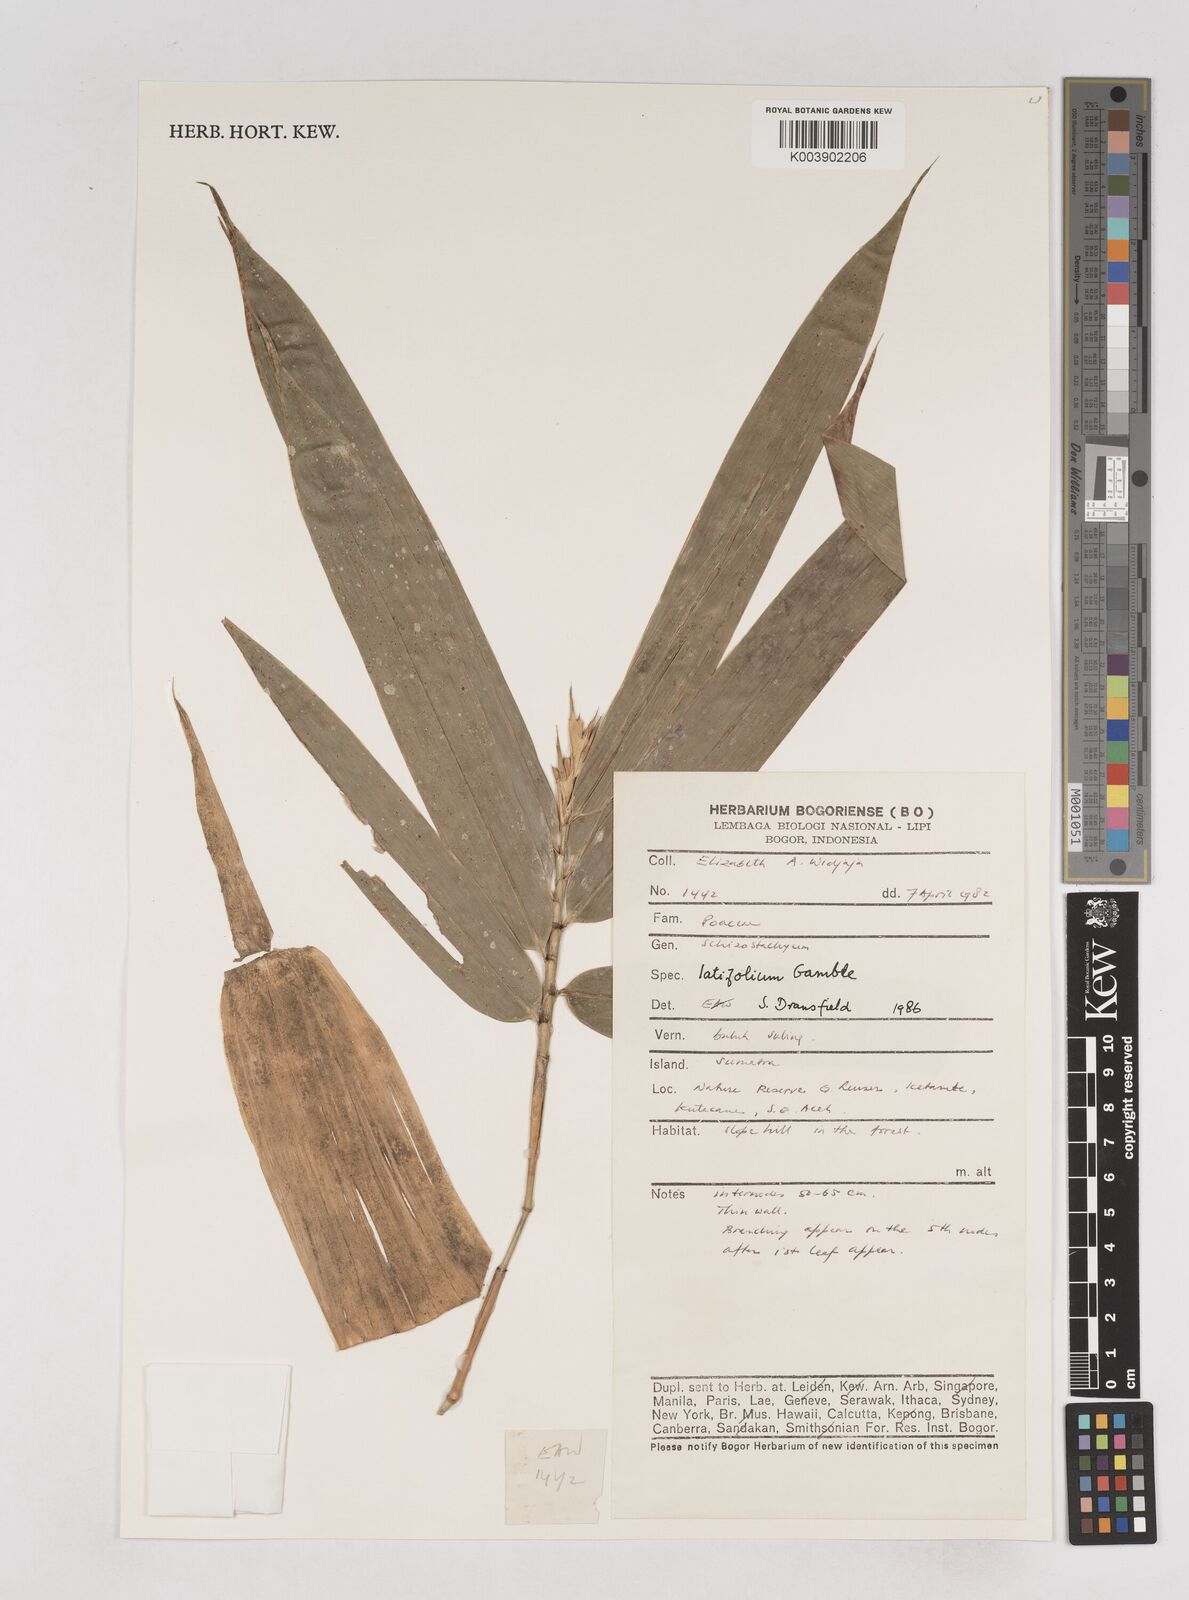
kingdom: Plantae
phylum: Tracheophyta
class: Liliopsida
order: Poales
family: Poaceae
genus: Schizostachyum
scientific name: Schizostachyum latifolium
